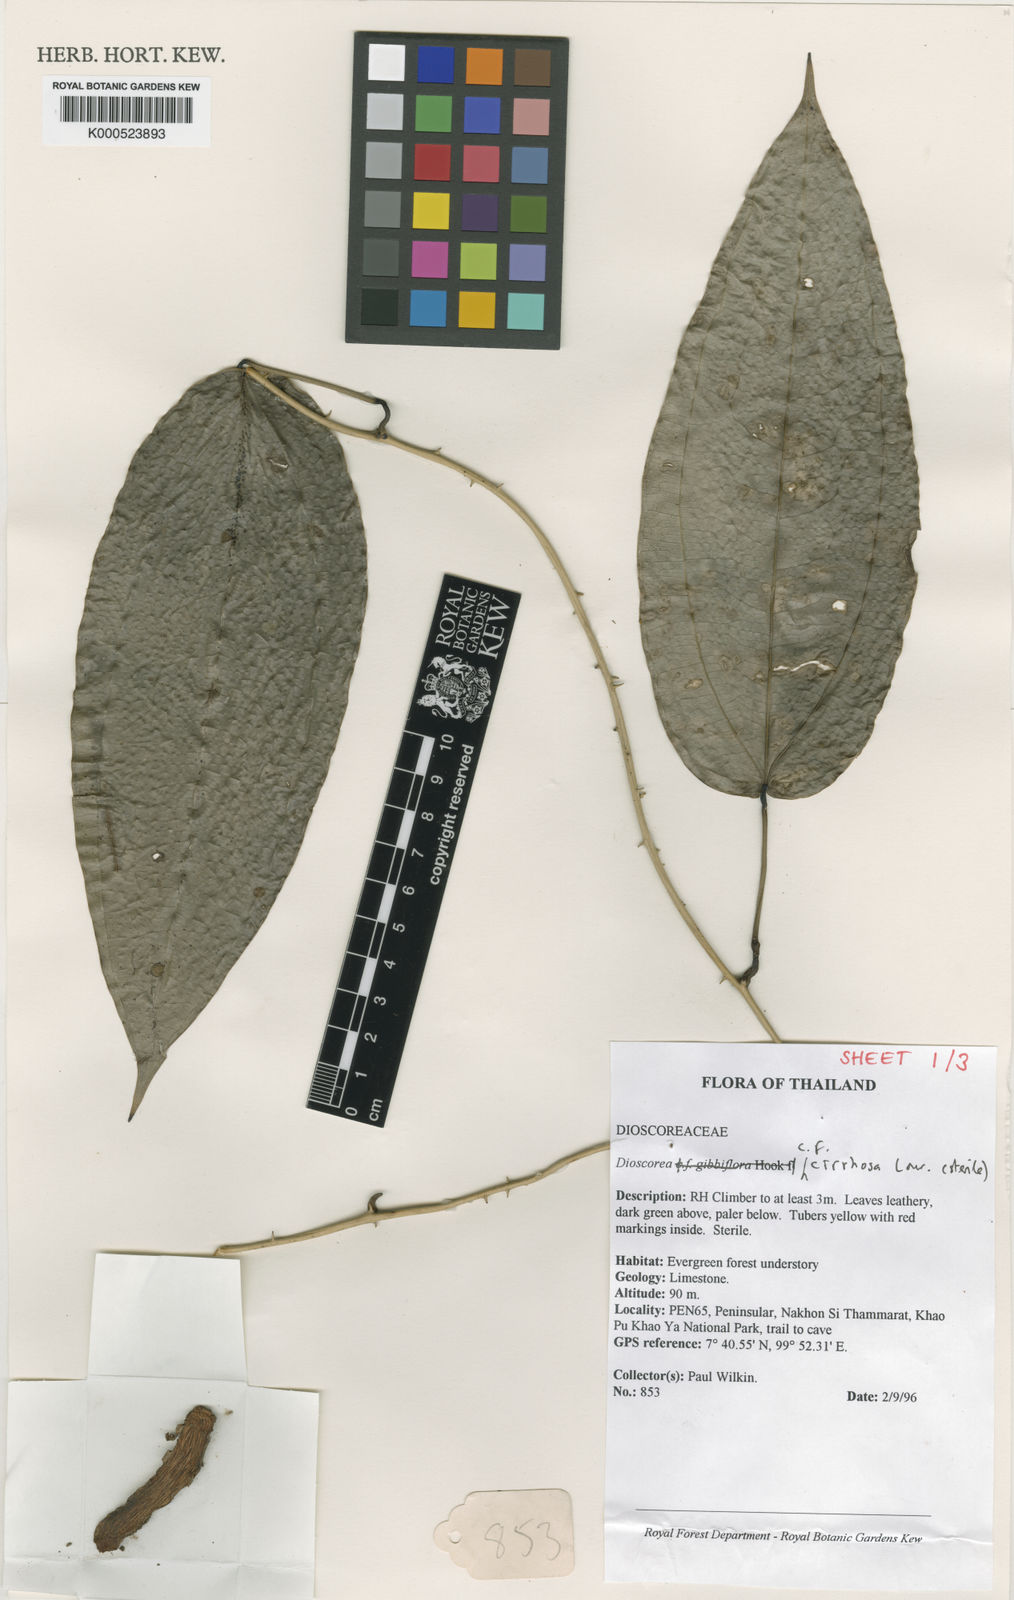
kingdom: Plantae
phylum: Tracheophyta
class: Liliopsida
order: Dioscoreales
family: Dioscoreaceae
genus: Dioscorea
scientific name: Dioscorea cirrhosa
